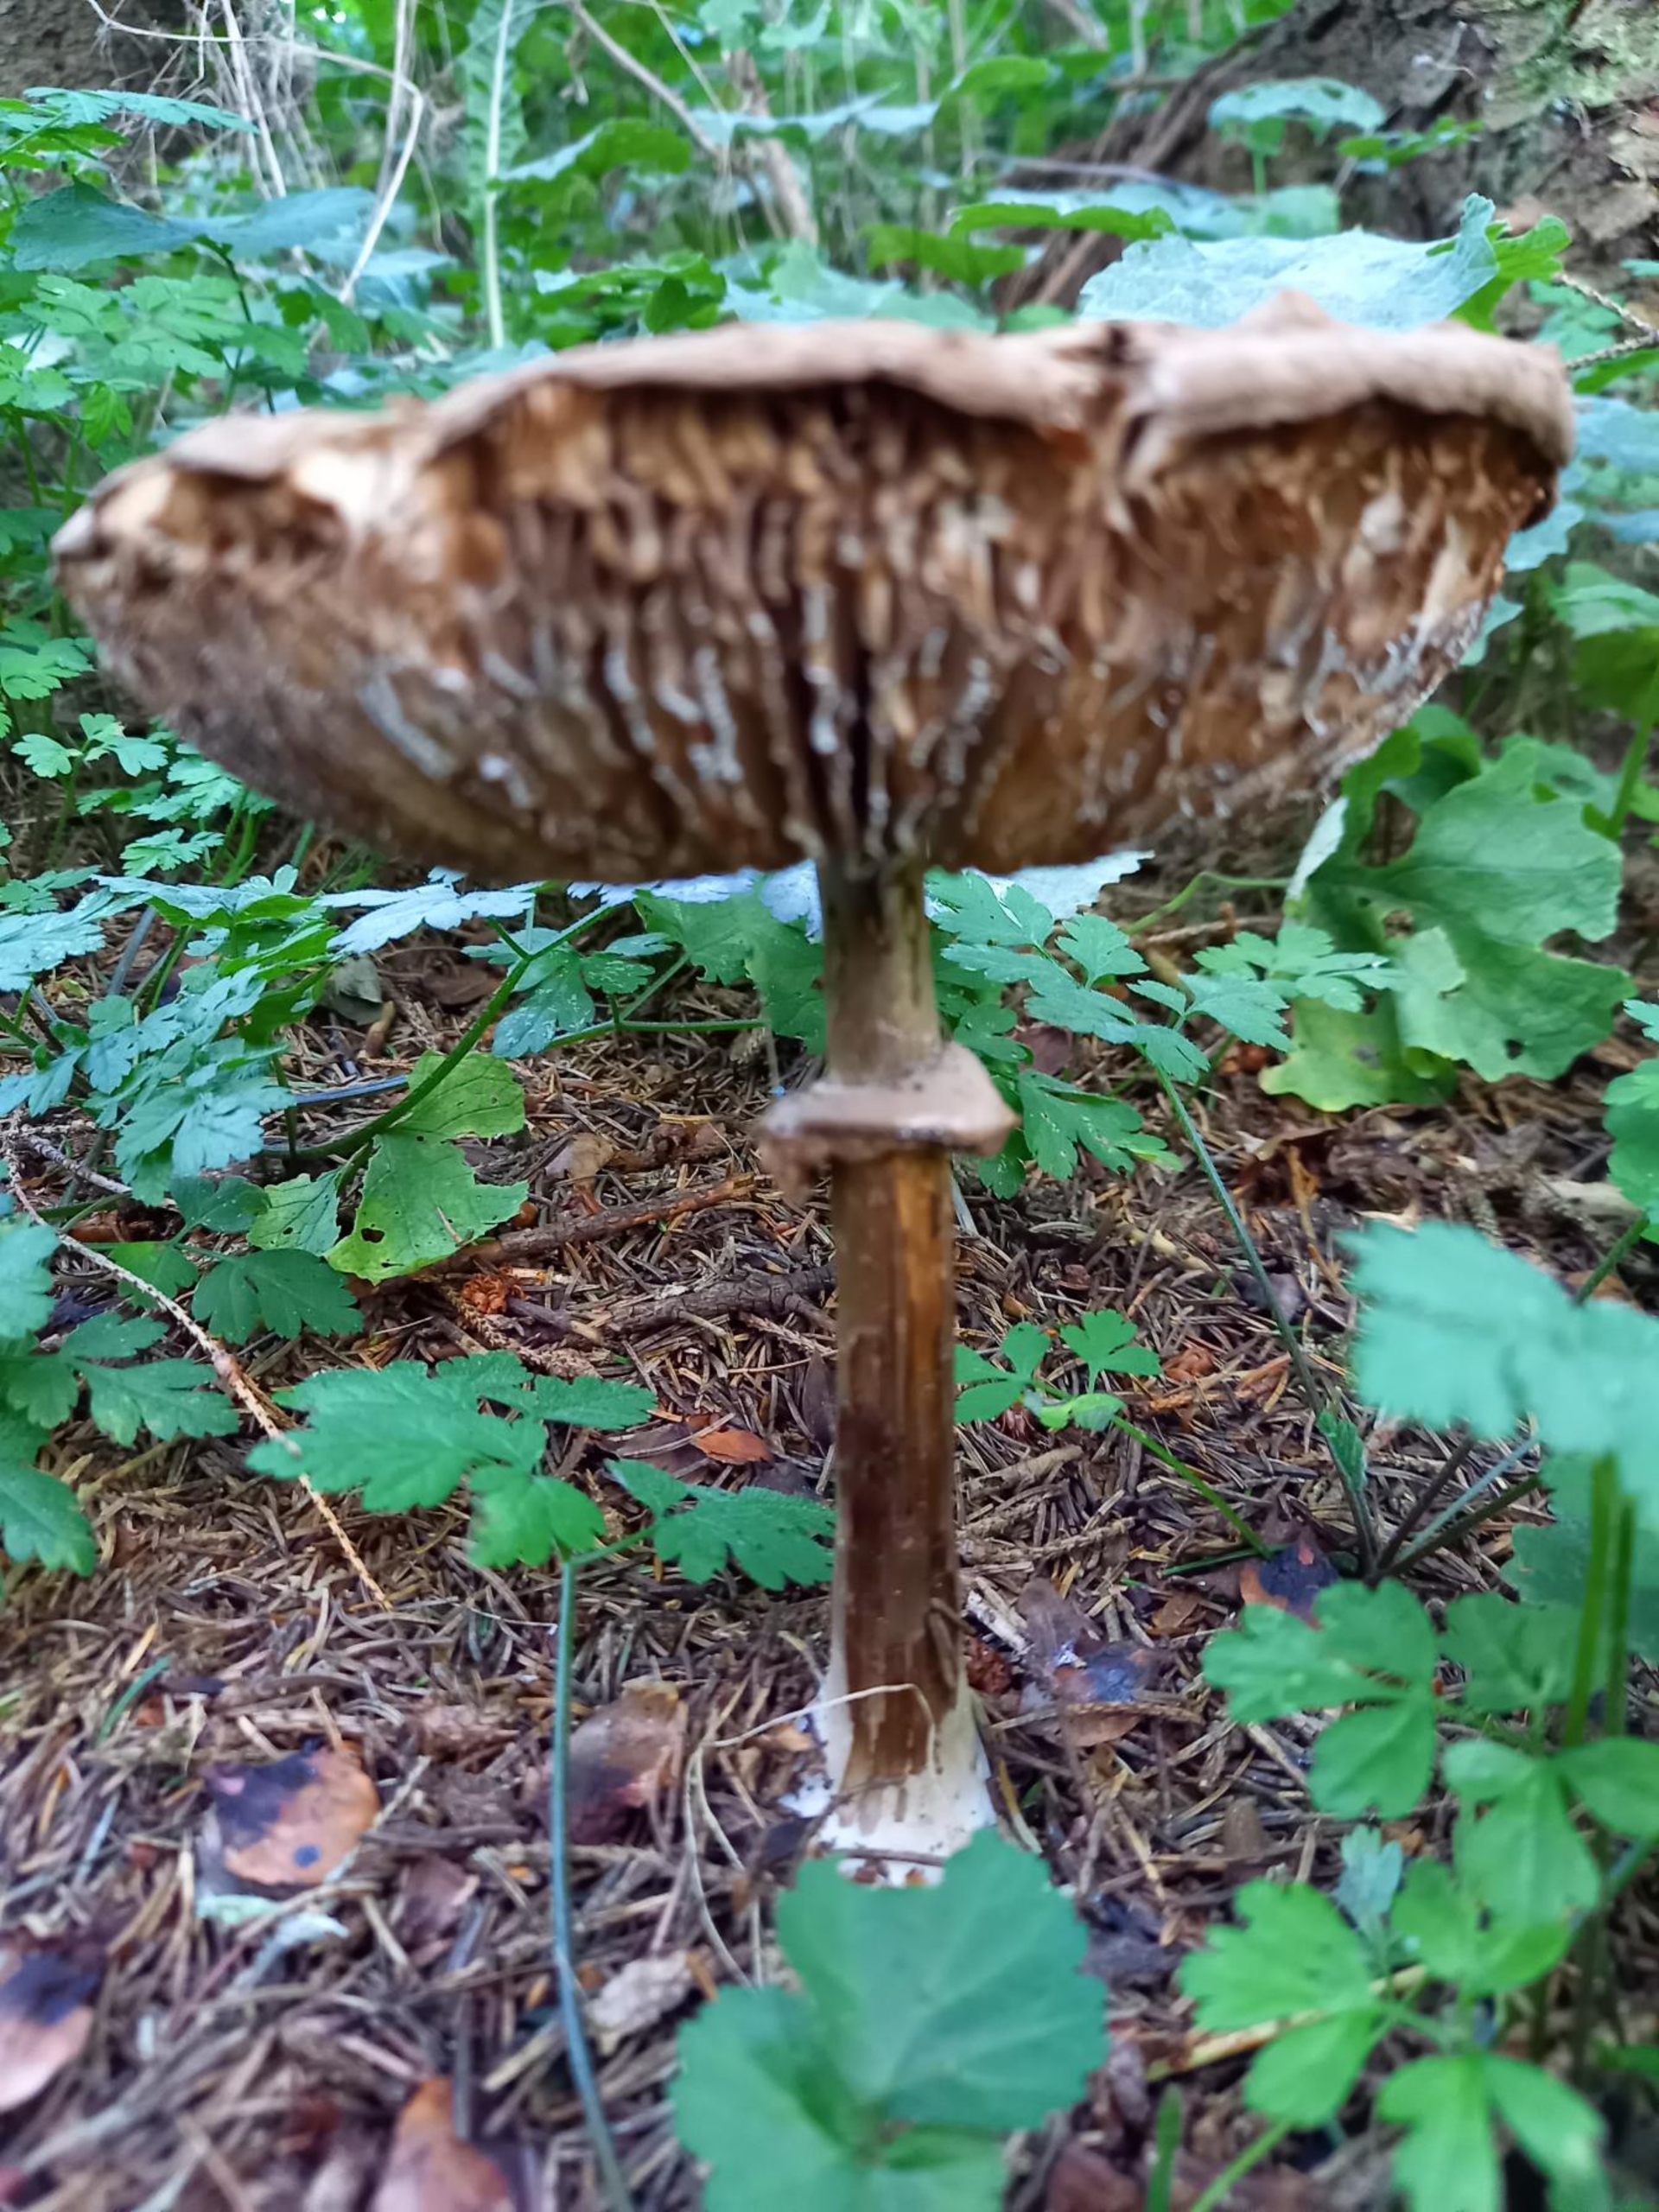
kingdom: Fungi
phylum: Basidiomycota
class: Agaricomycetes
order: Agaricales
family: Agaricaceae
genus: Chlorophyllum
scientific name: Chlorophyllum
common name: Rabarberhat
